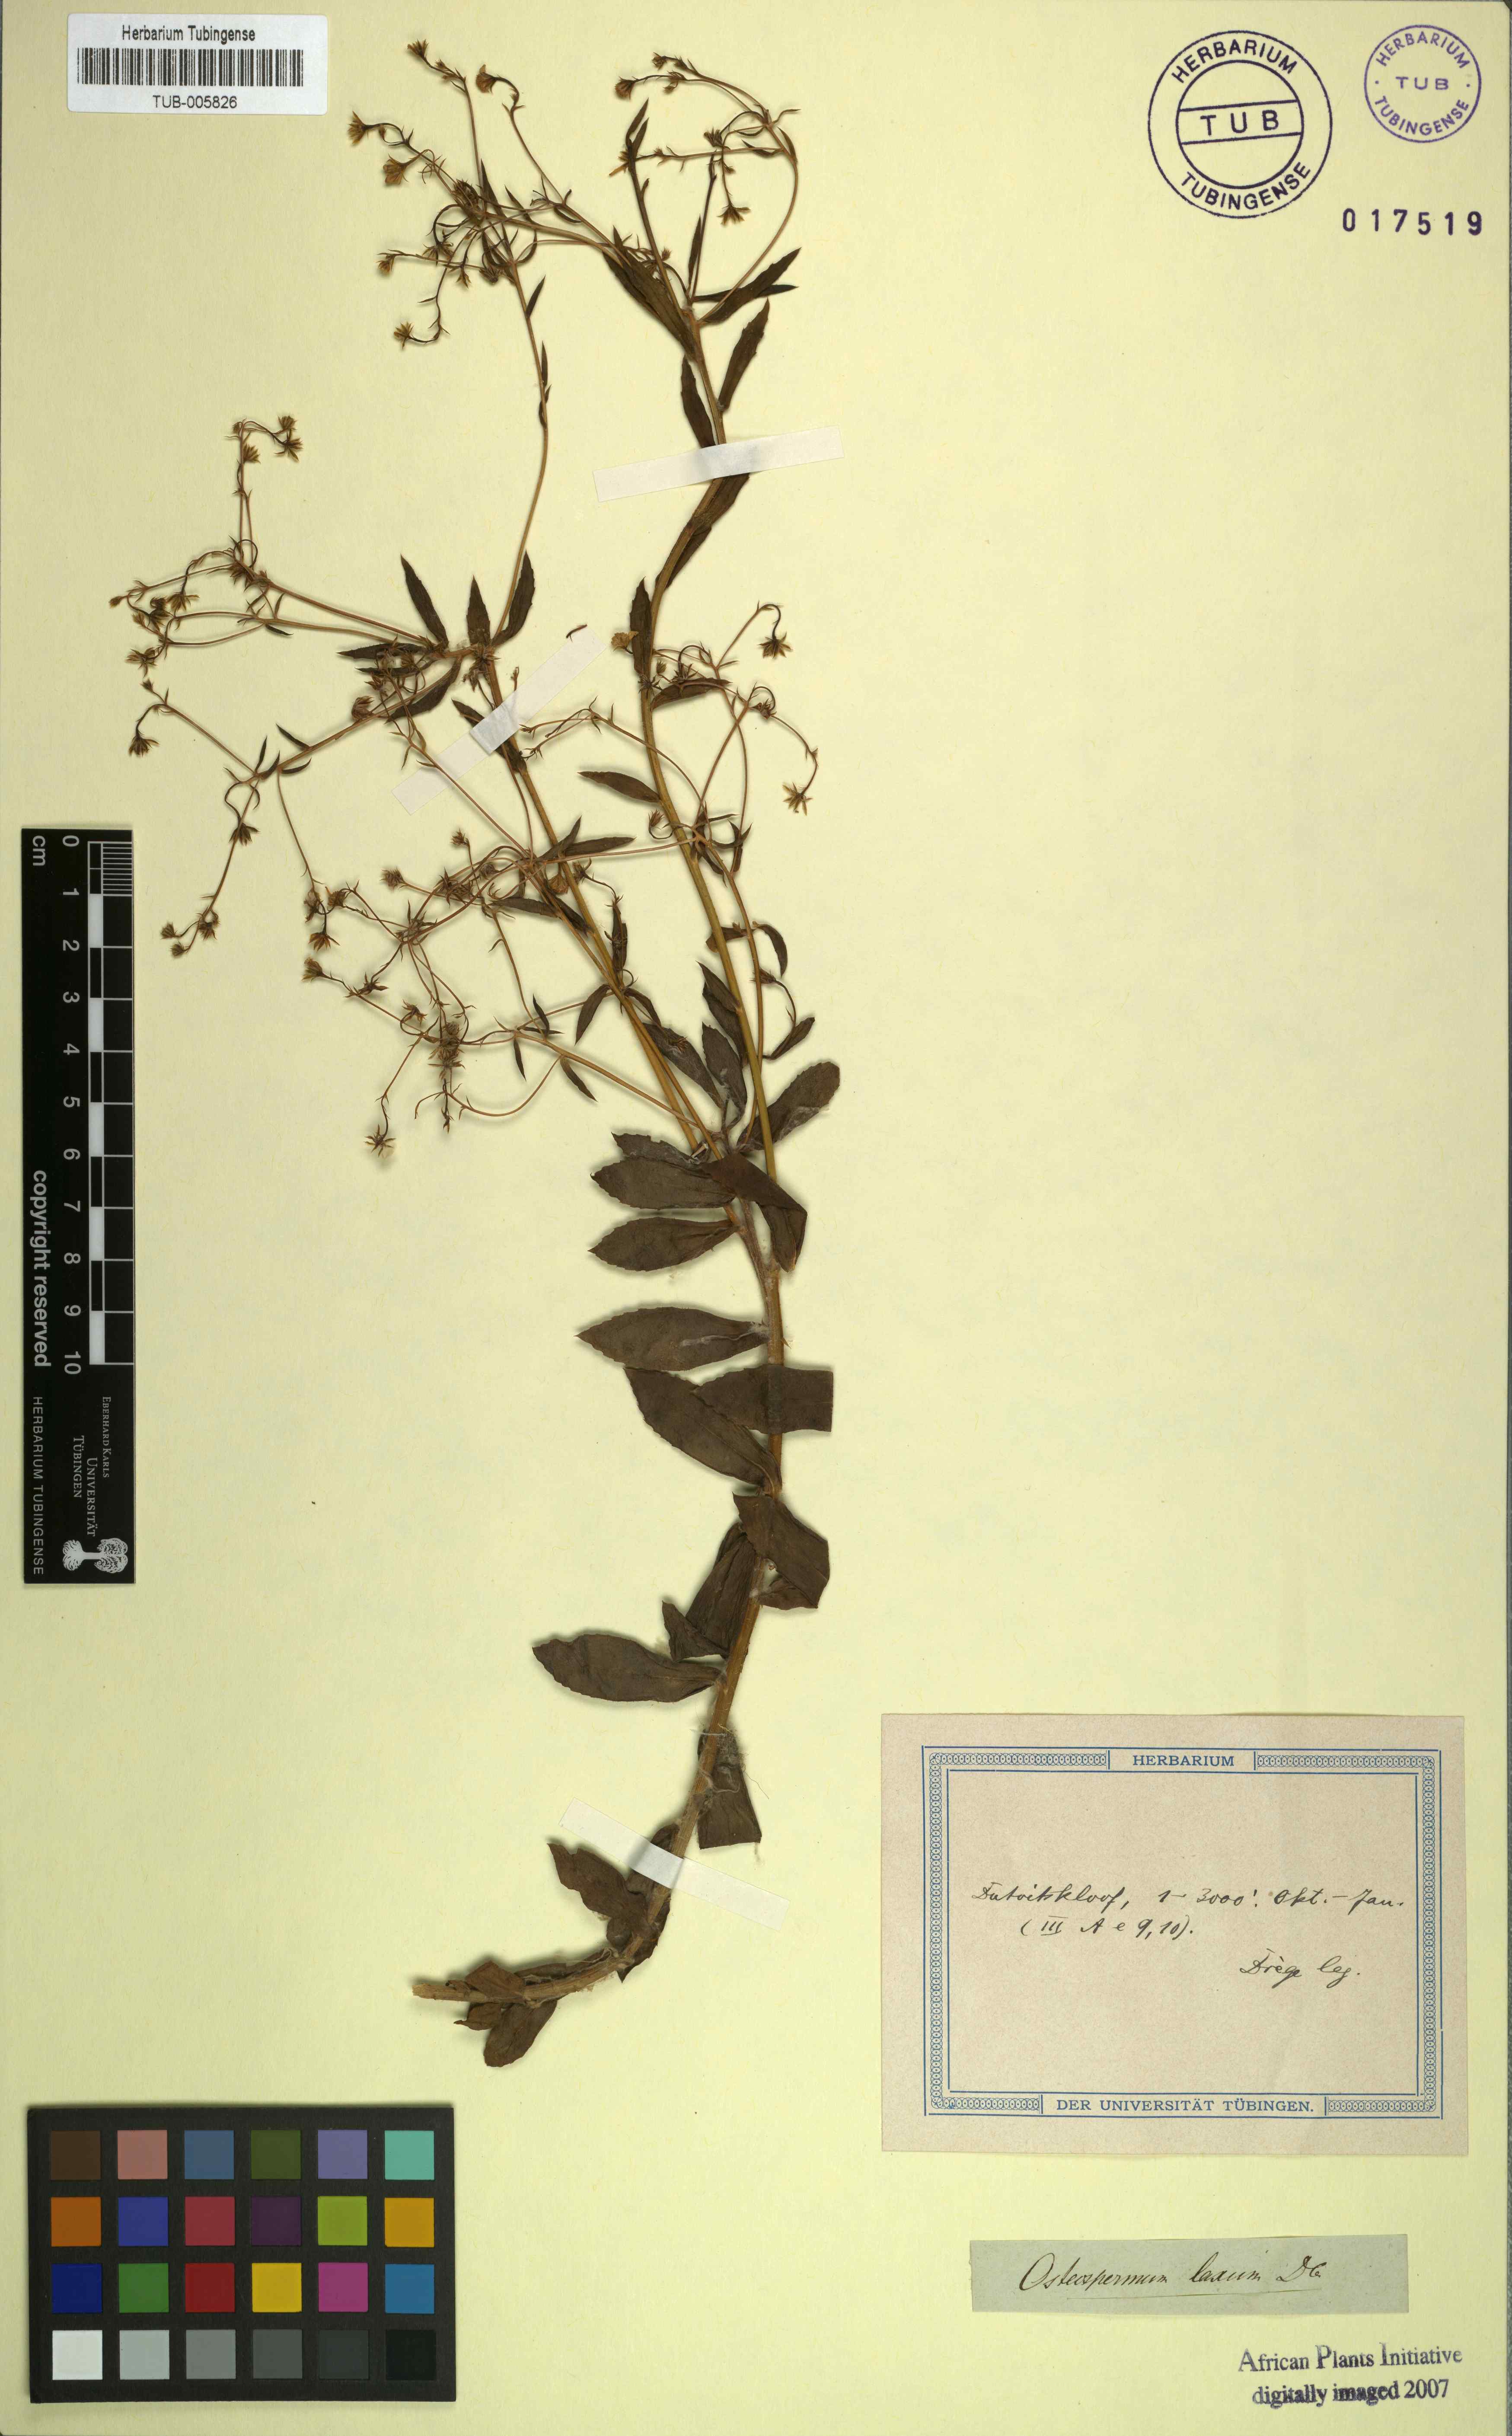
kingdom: Plantae
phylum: Tracheophyta
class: Magnoliopsida
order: Asterales
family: Asteraceae
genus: Osteospermum
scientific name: Osteospermum ciliatum
